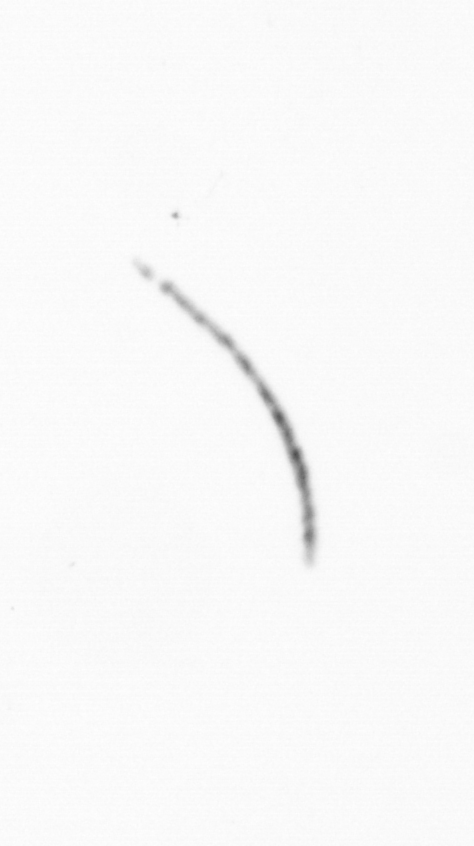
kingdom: Chromista
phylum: Ochrophyta
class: Bacillariophyceae
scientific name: Bacillariophyceae
